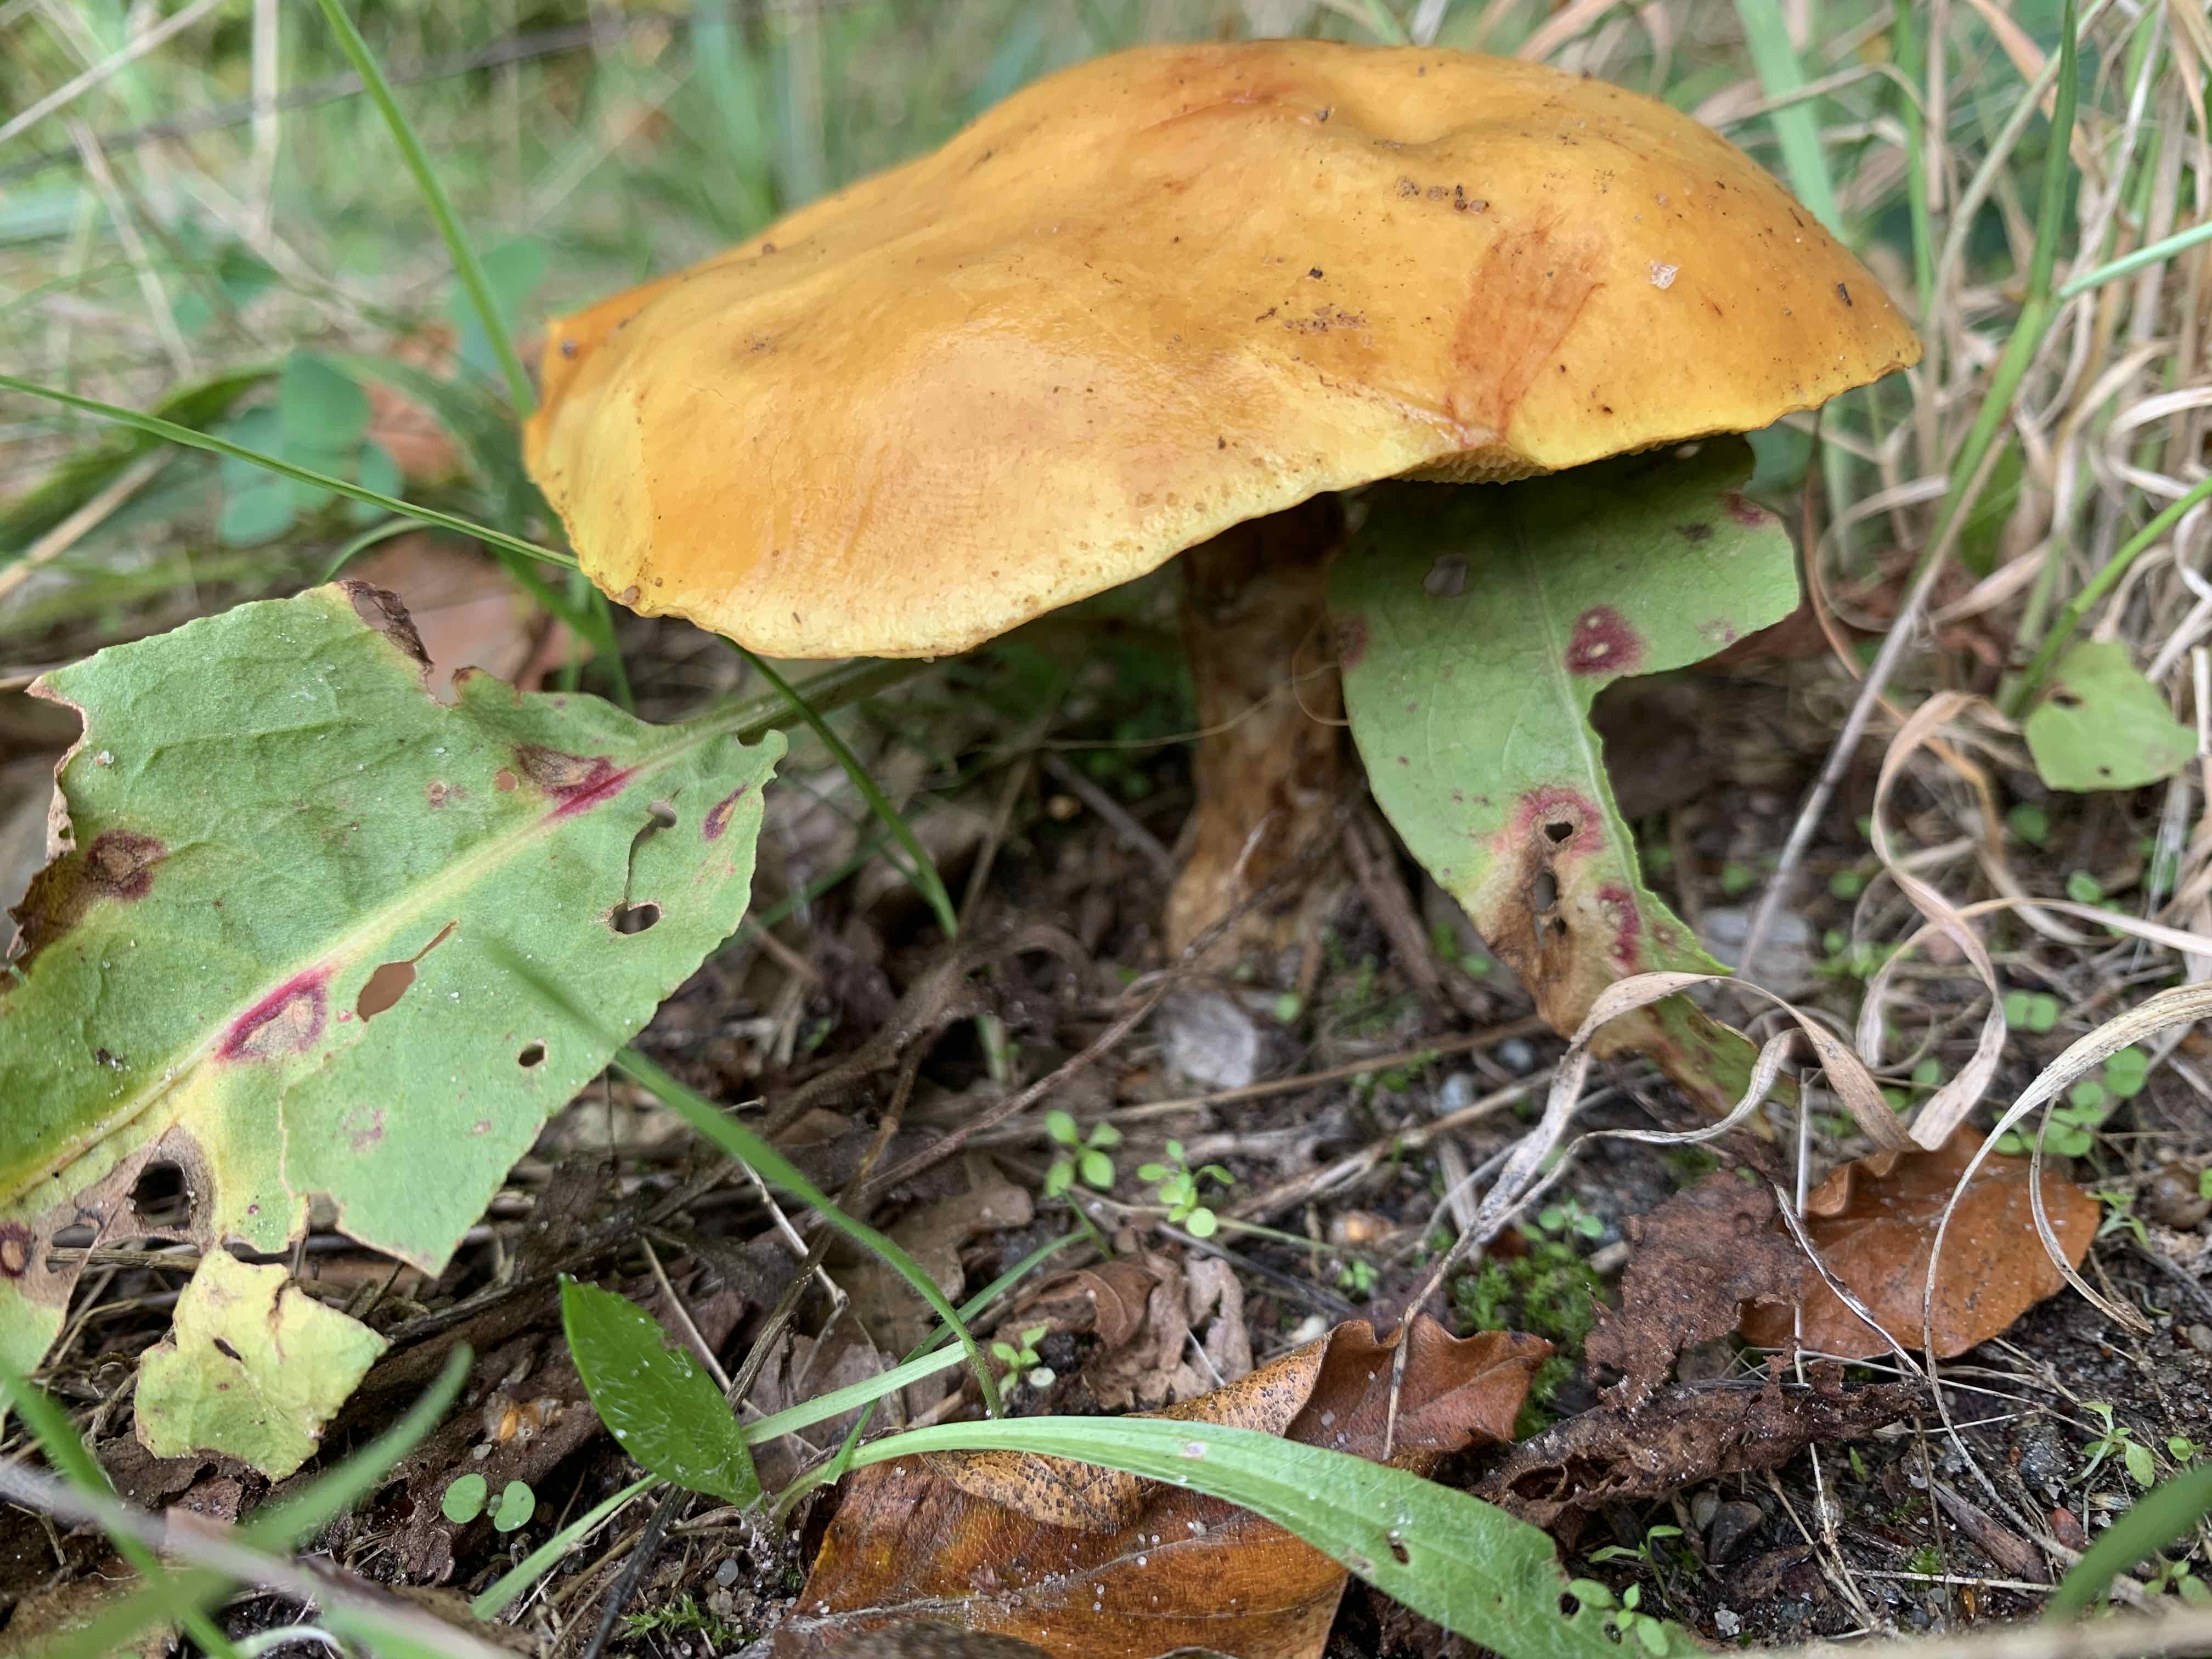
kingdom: Fungi
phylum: Basidiomycota
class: Agaricomycetes
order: Boletales
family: Suillaceae
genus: Suillus
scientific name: Suillus grevillei
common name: lærke-slimrørhat
